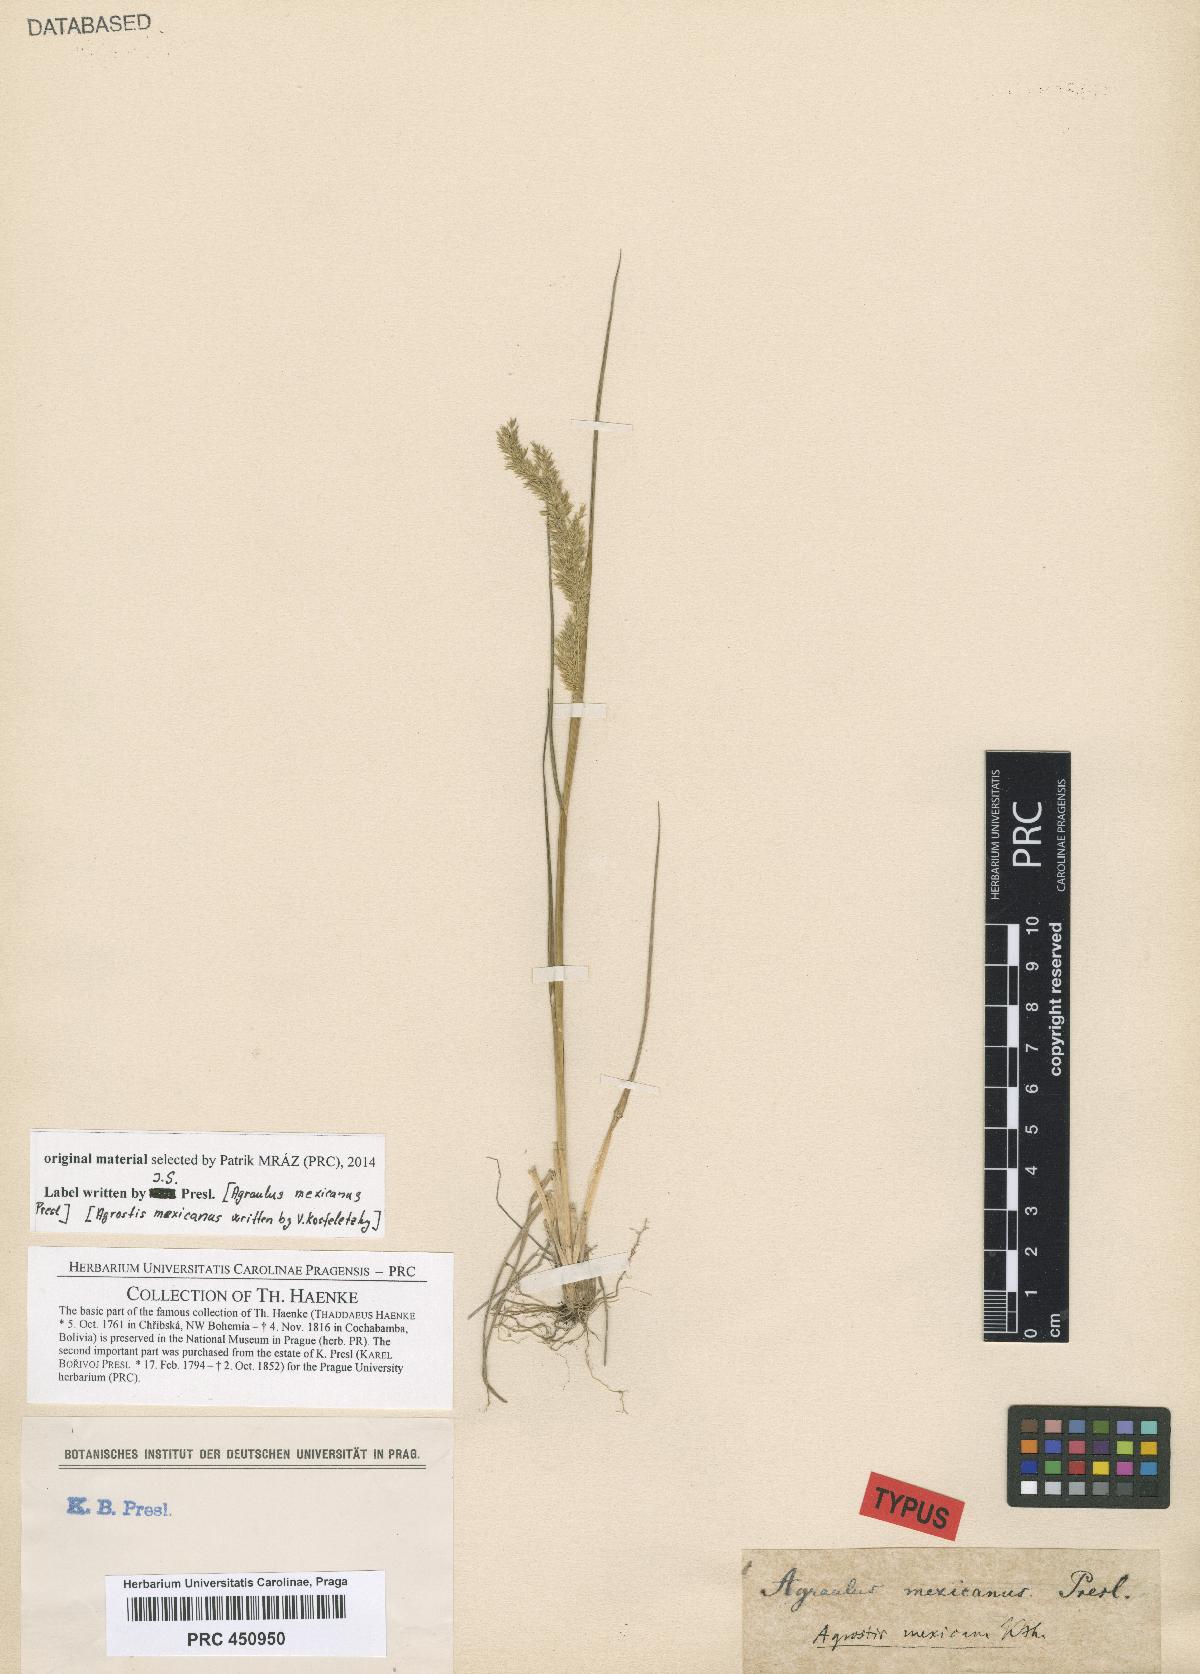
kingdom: Plantae
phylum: Tracheophyta
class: Liliopsida
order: Poales
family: Poaceae
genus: Agrostis
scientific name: Agrostis tolucensis
